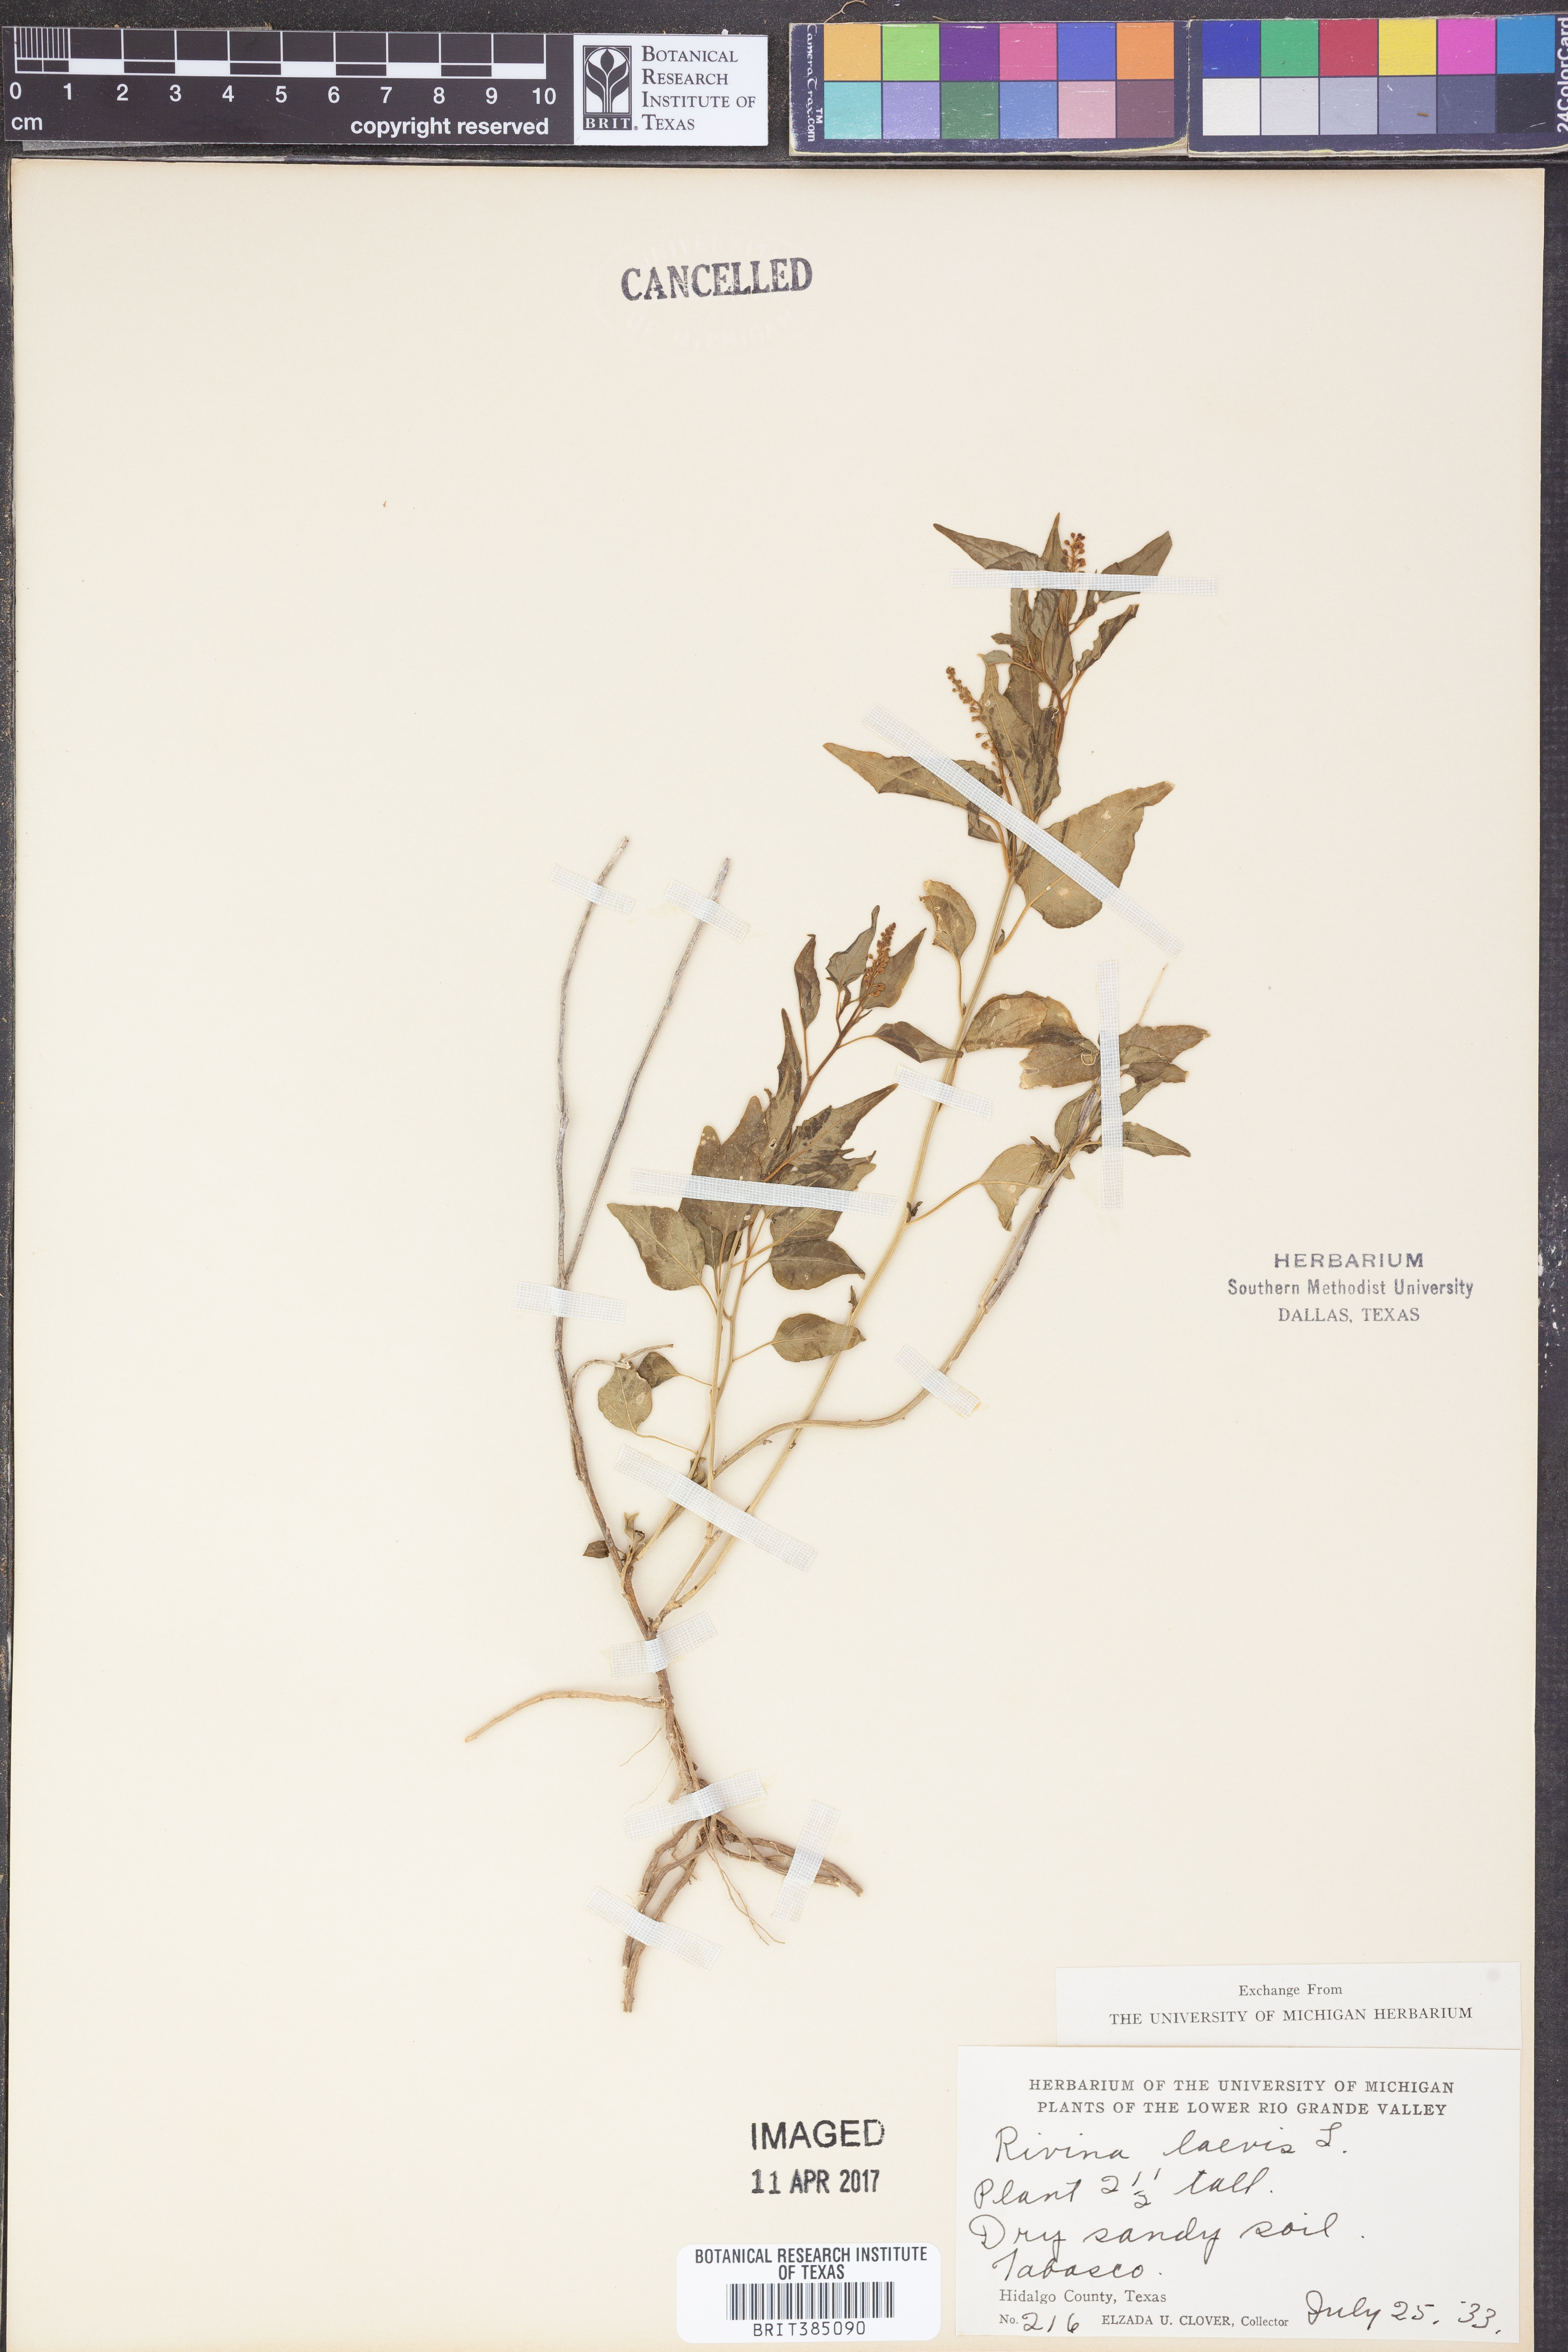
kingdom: Plantae
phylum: Tracheophyta
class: Magnoliopsida
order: Caryophyllales
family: Phytolaccaceae
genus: Rivina
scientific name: Rivina humilis
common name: Rougeplant
